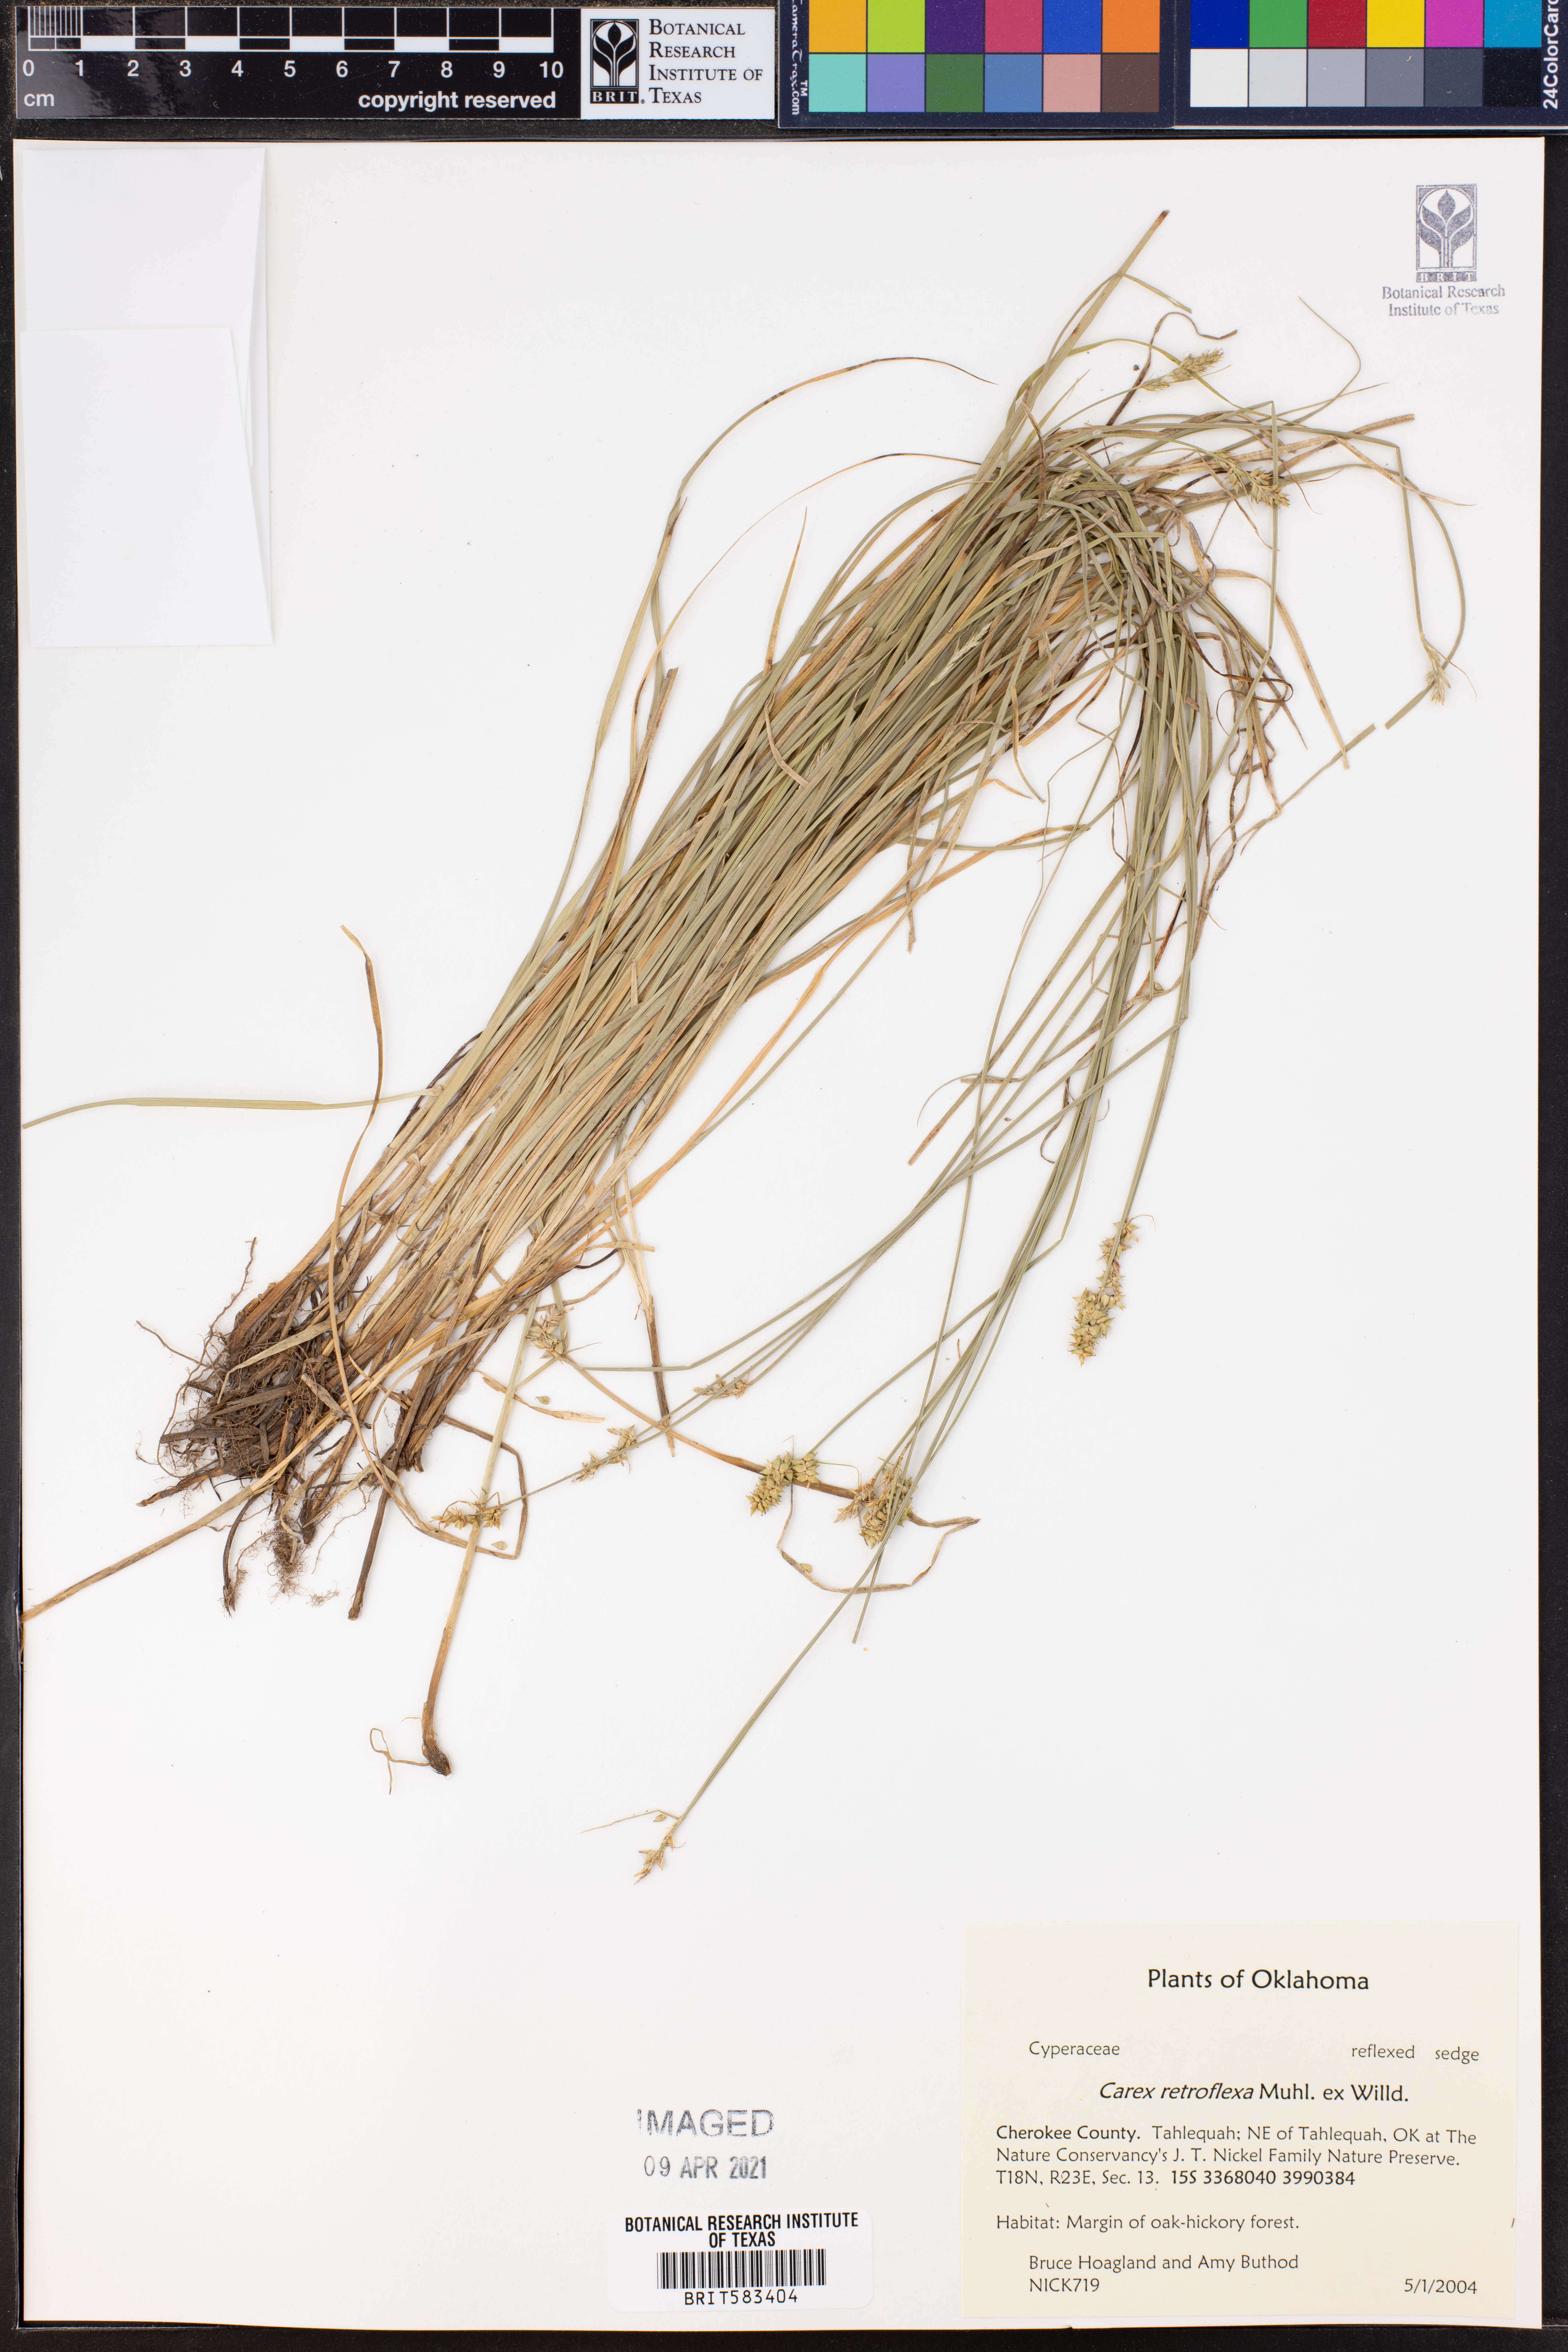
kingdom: Plantae
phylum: Tracheophyta
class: Liliopsida
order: Poales
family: Cyperaceae
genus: Carex
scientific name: Carex retroflexa
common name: Reflexed sedge
